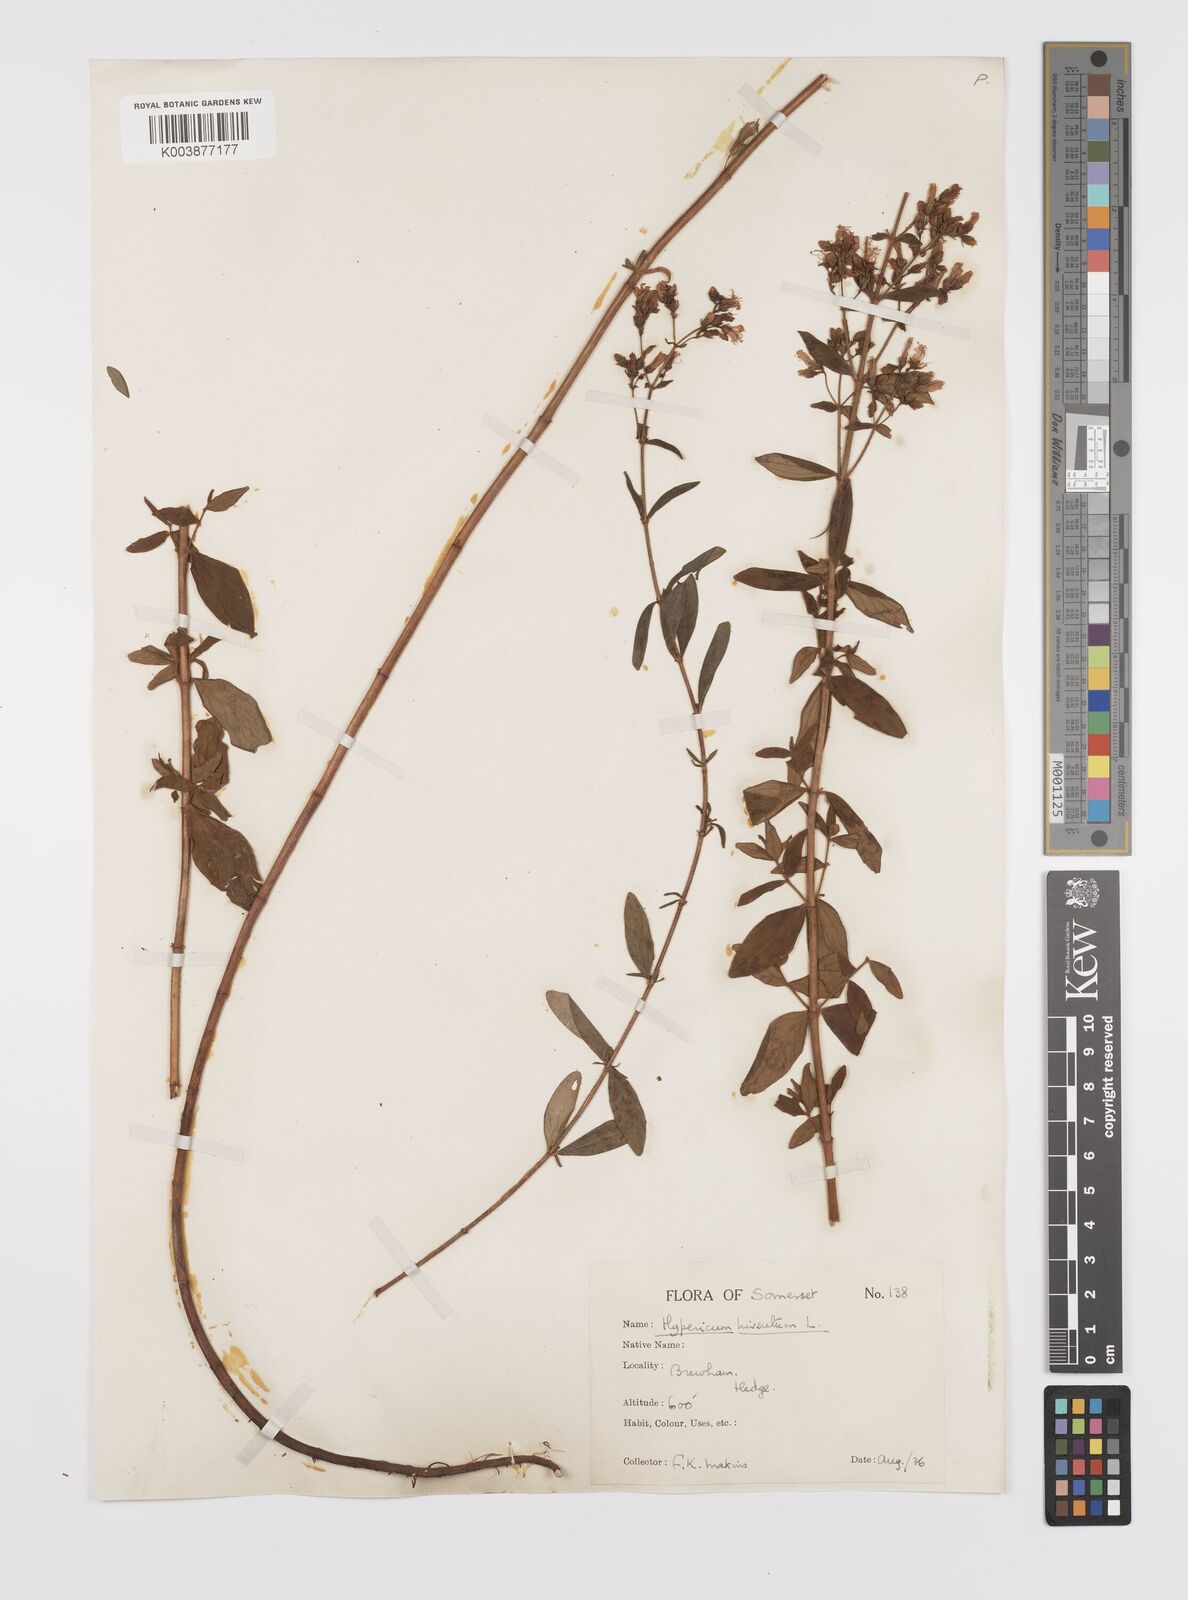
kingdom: Plantae
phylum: Tracheophyta
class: Magnoliopsida
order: Malpighiales
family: Hypericaceae
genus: Hypericum
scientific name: Hypericum hirsutum
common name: Hairy st. john's-wort
